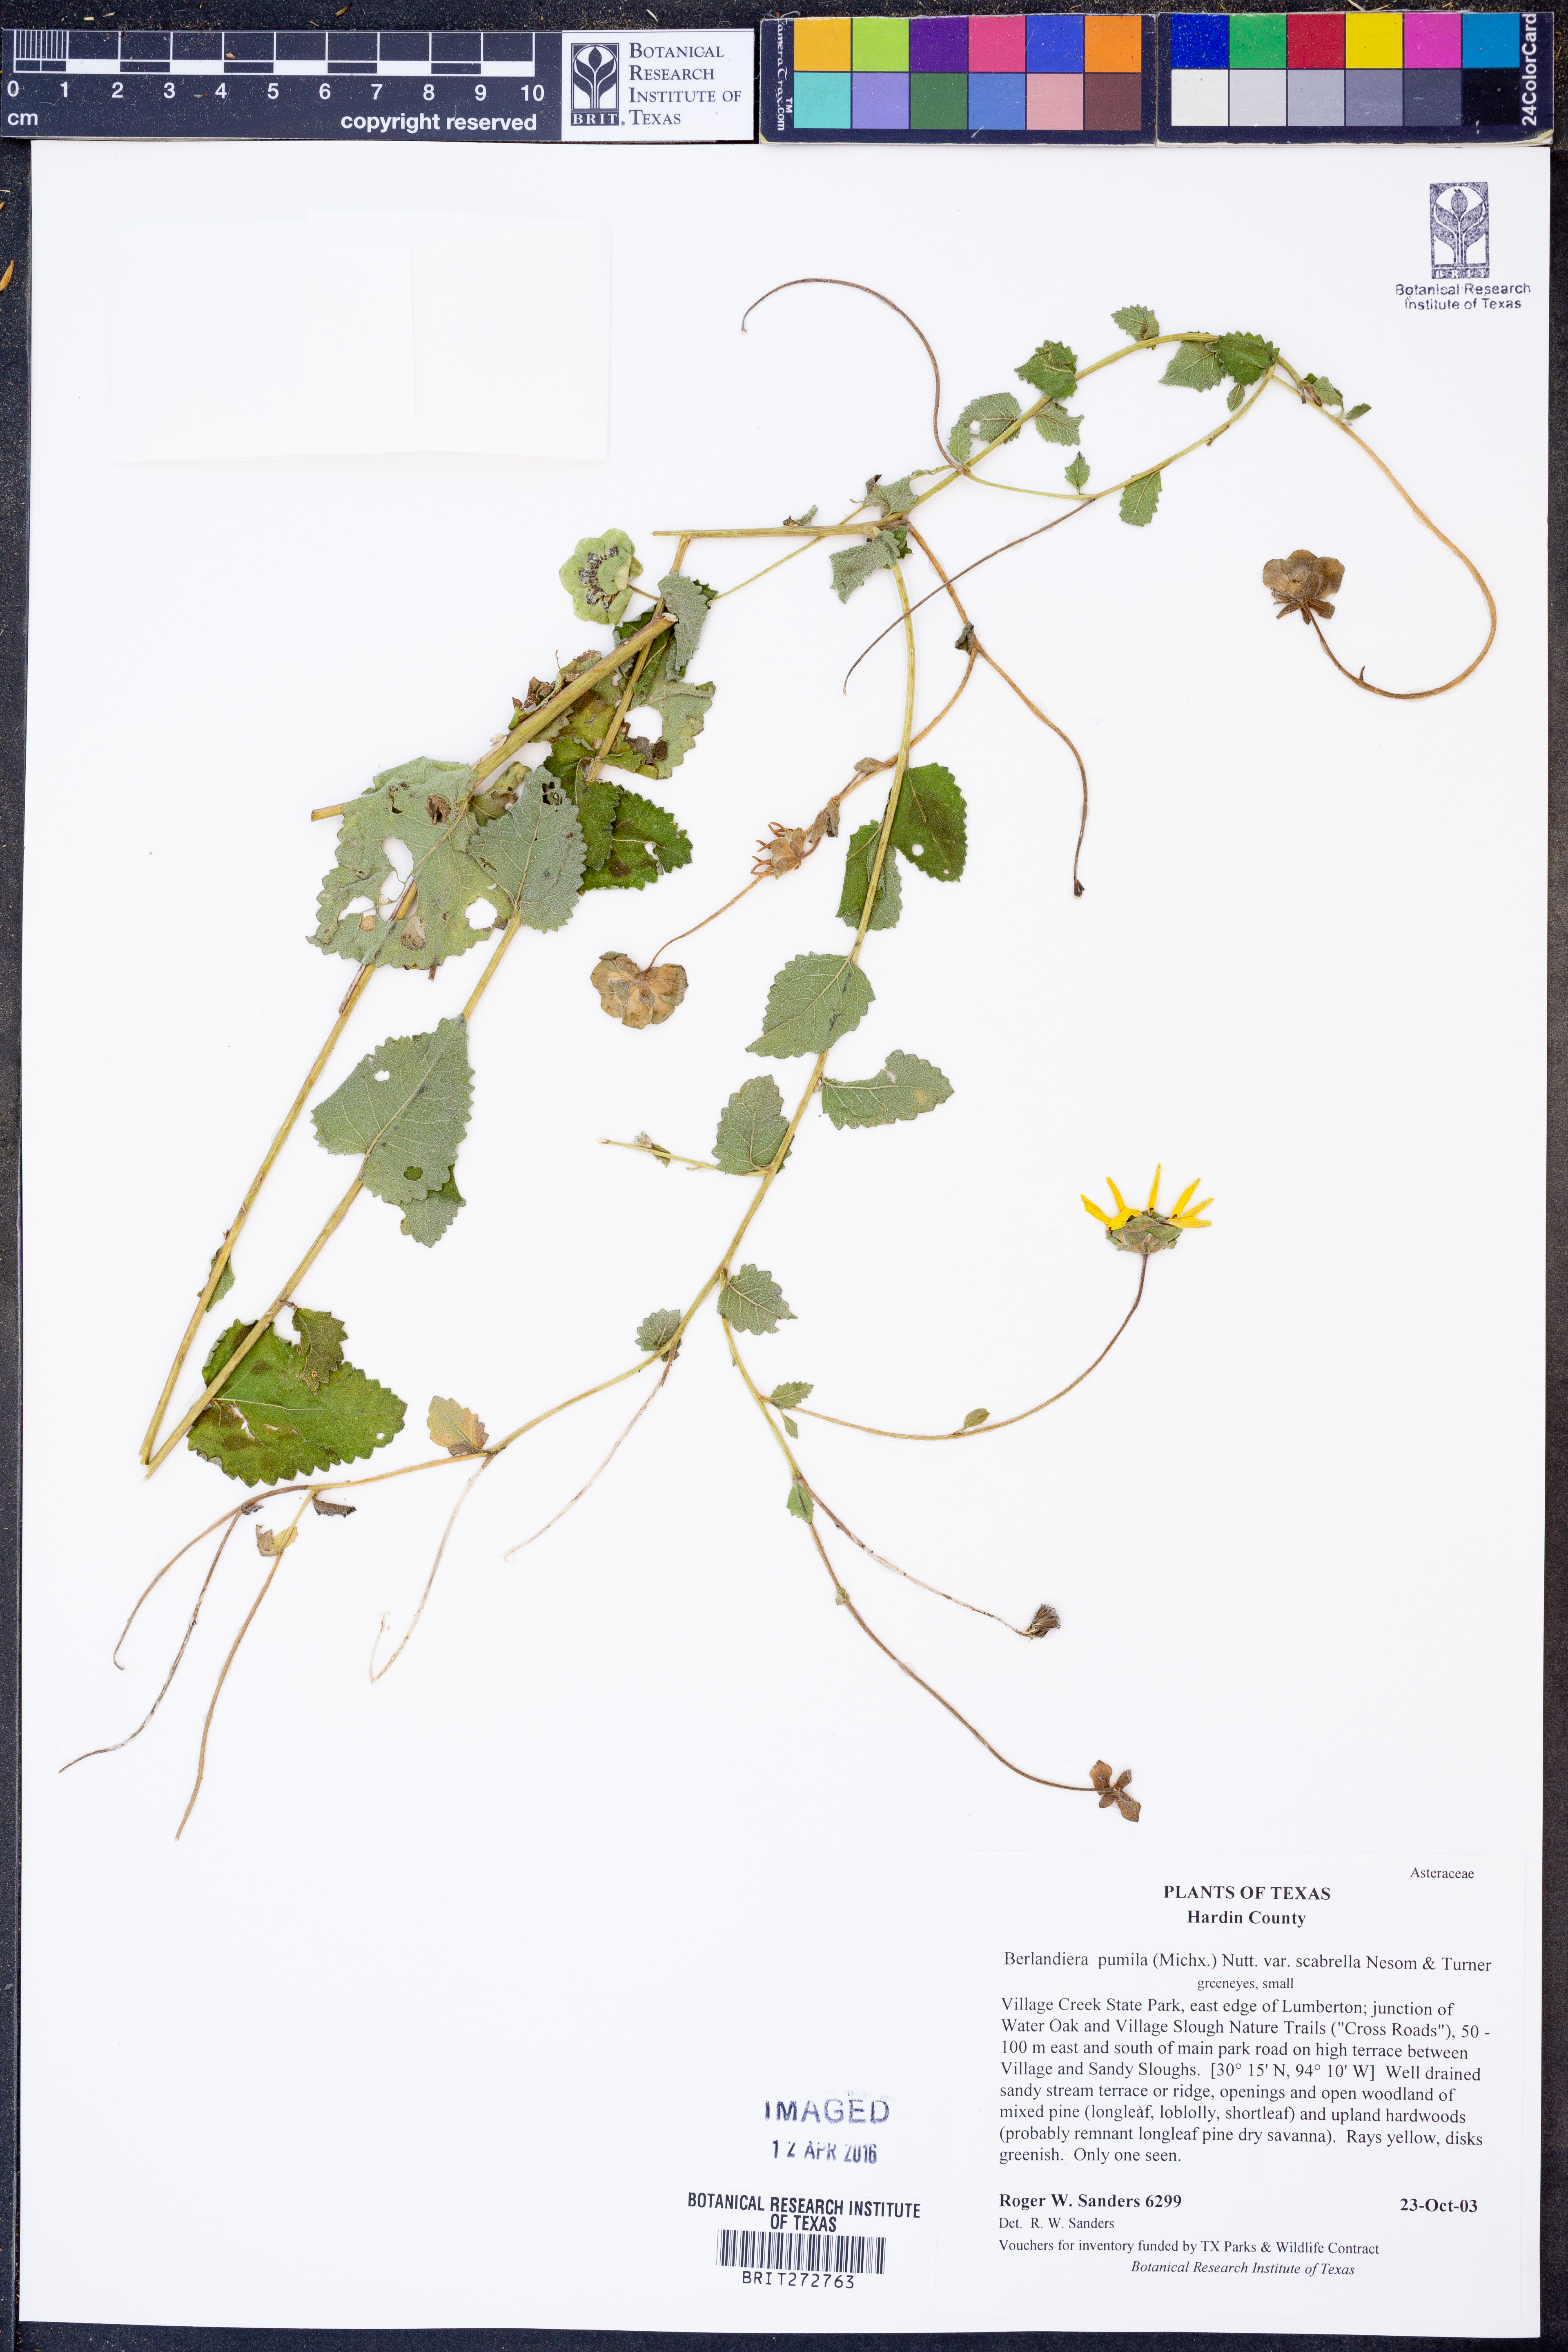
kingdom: Plantae
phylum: Tracheophyta
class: Magnoliopsida
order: Asterales
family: Asteraceae
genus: Berlandiera
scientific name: Berlandiera betonicifolia
